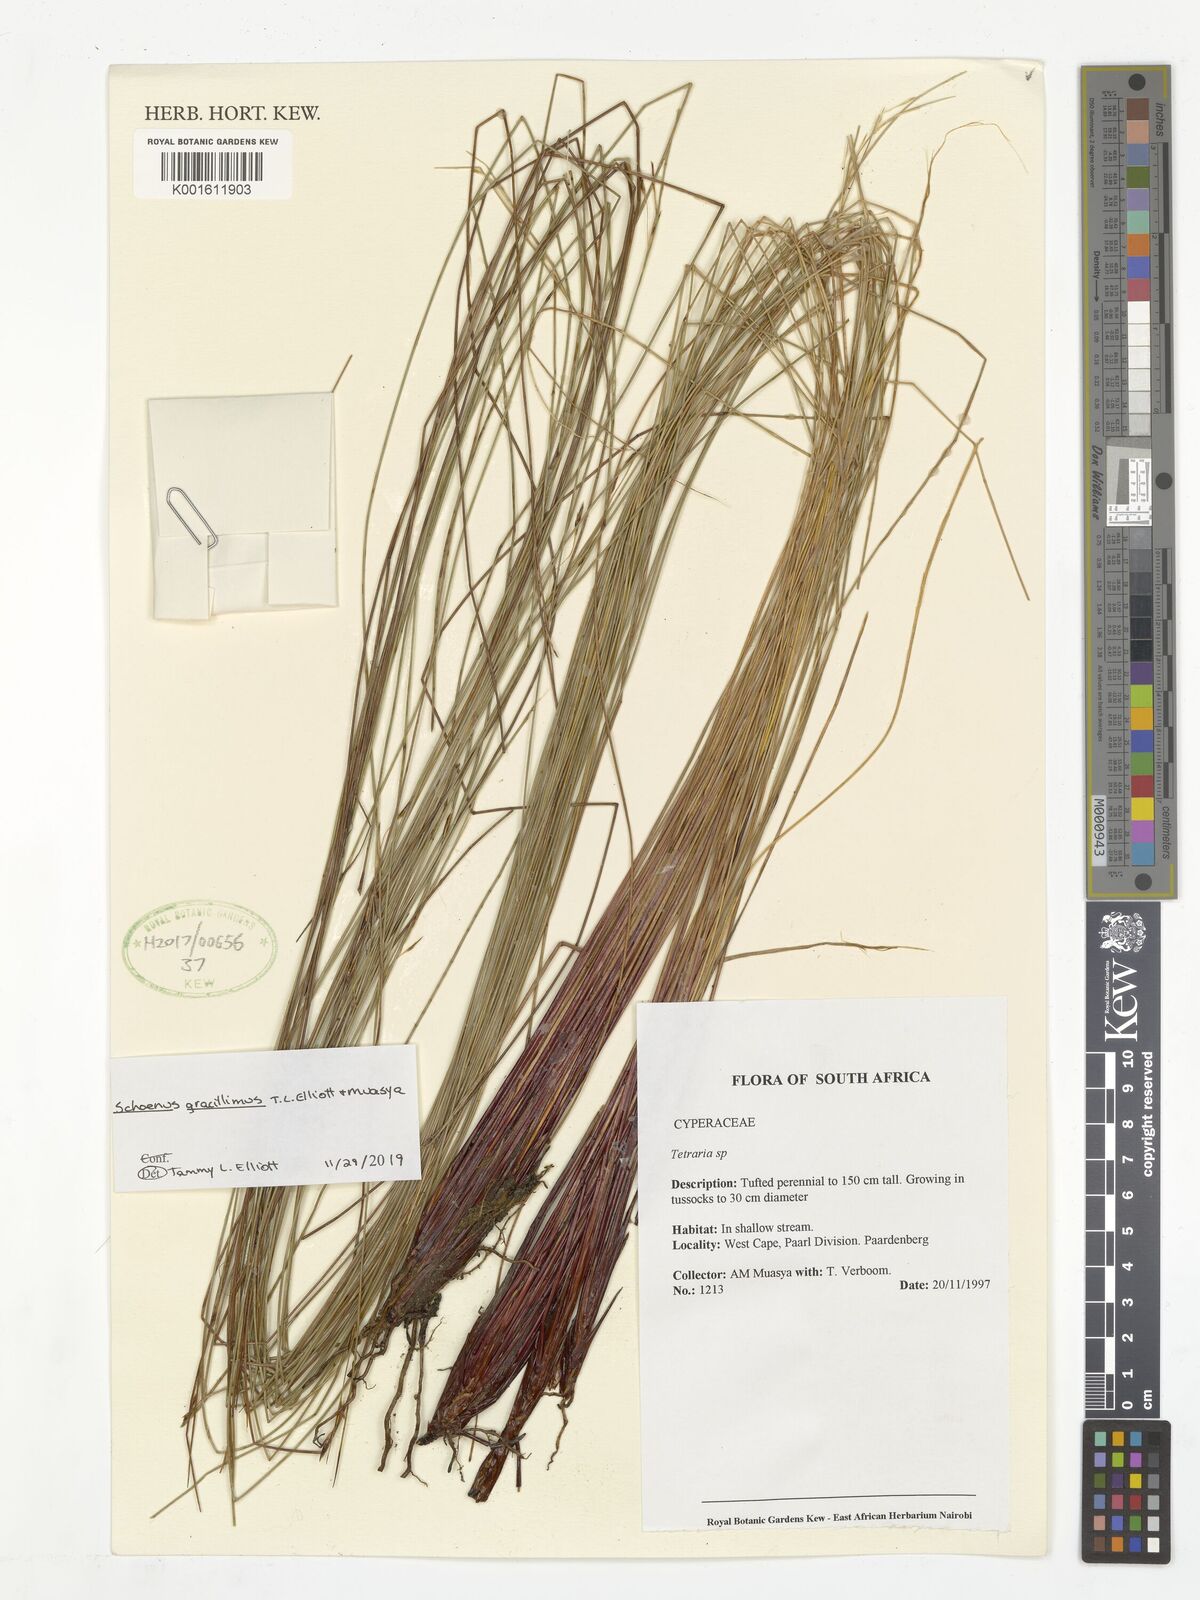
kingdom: Plantae
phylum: Tracheophyta
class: Liliopsida
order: Poales
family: Cyperaceae
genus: Schoenus
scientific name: Schoenus gracillimus
